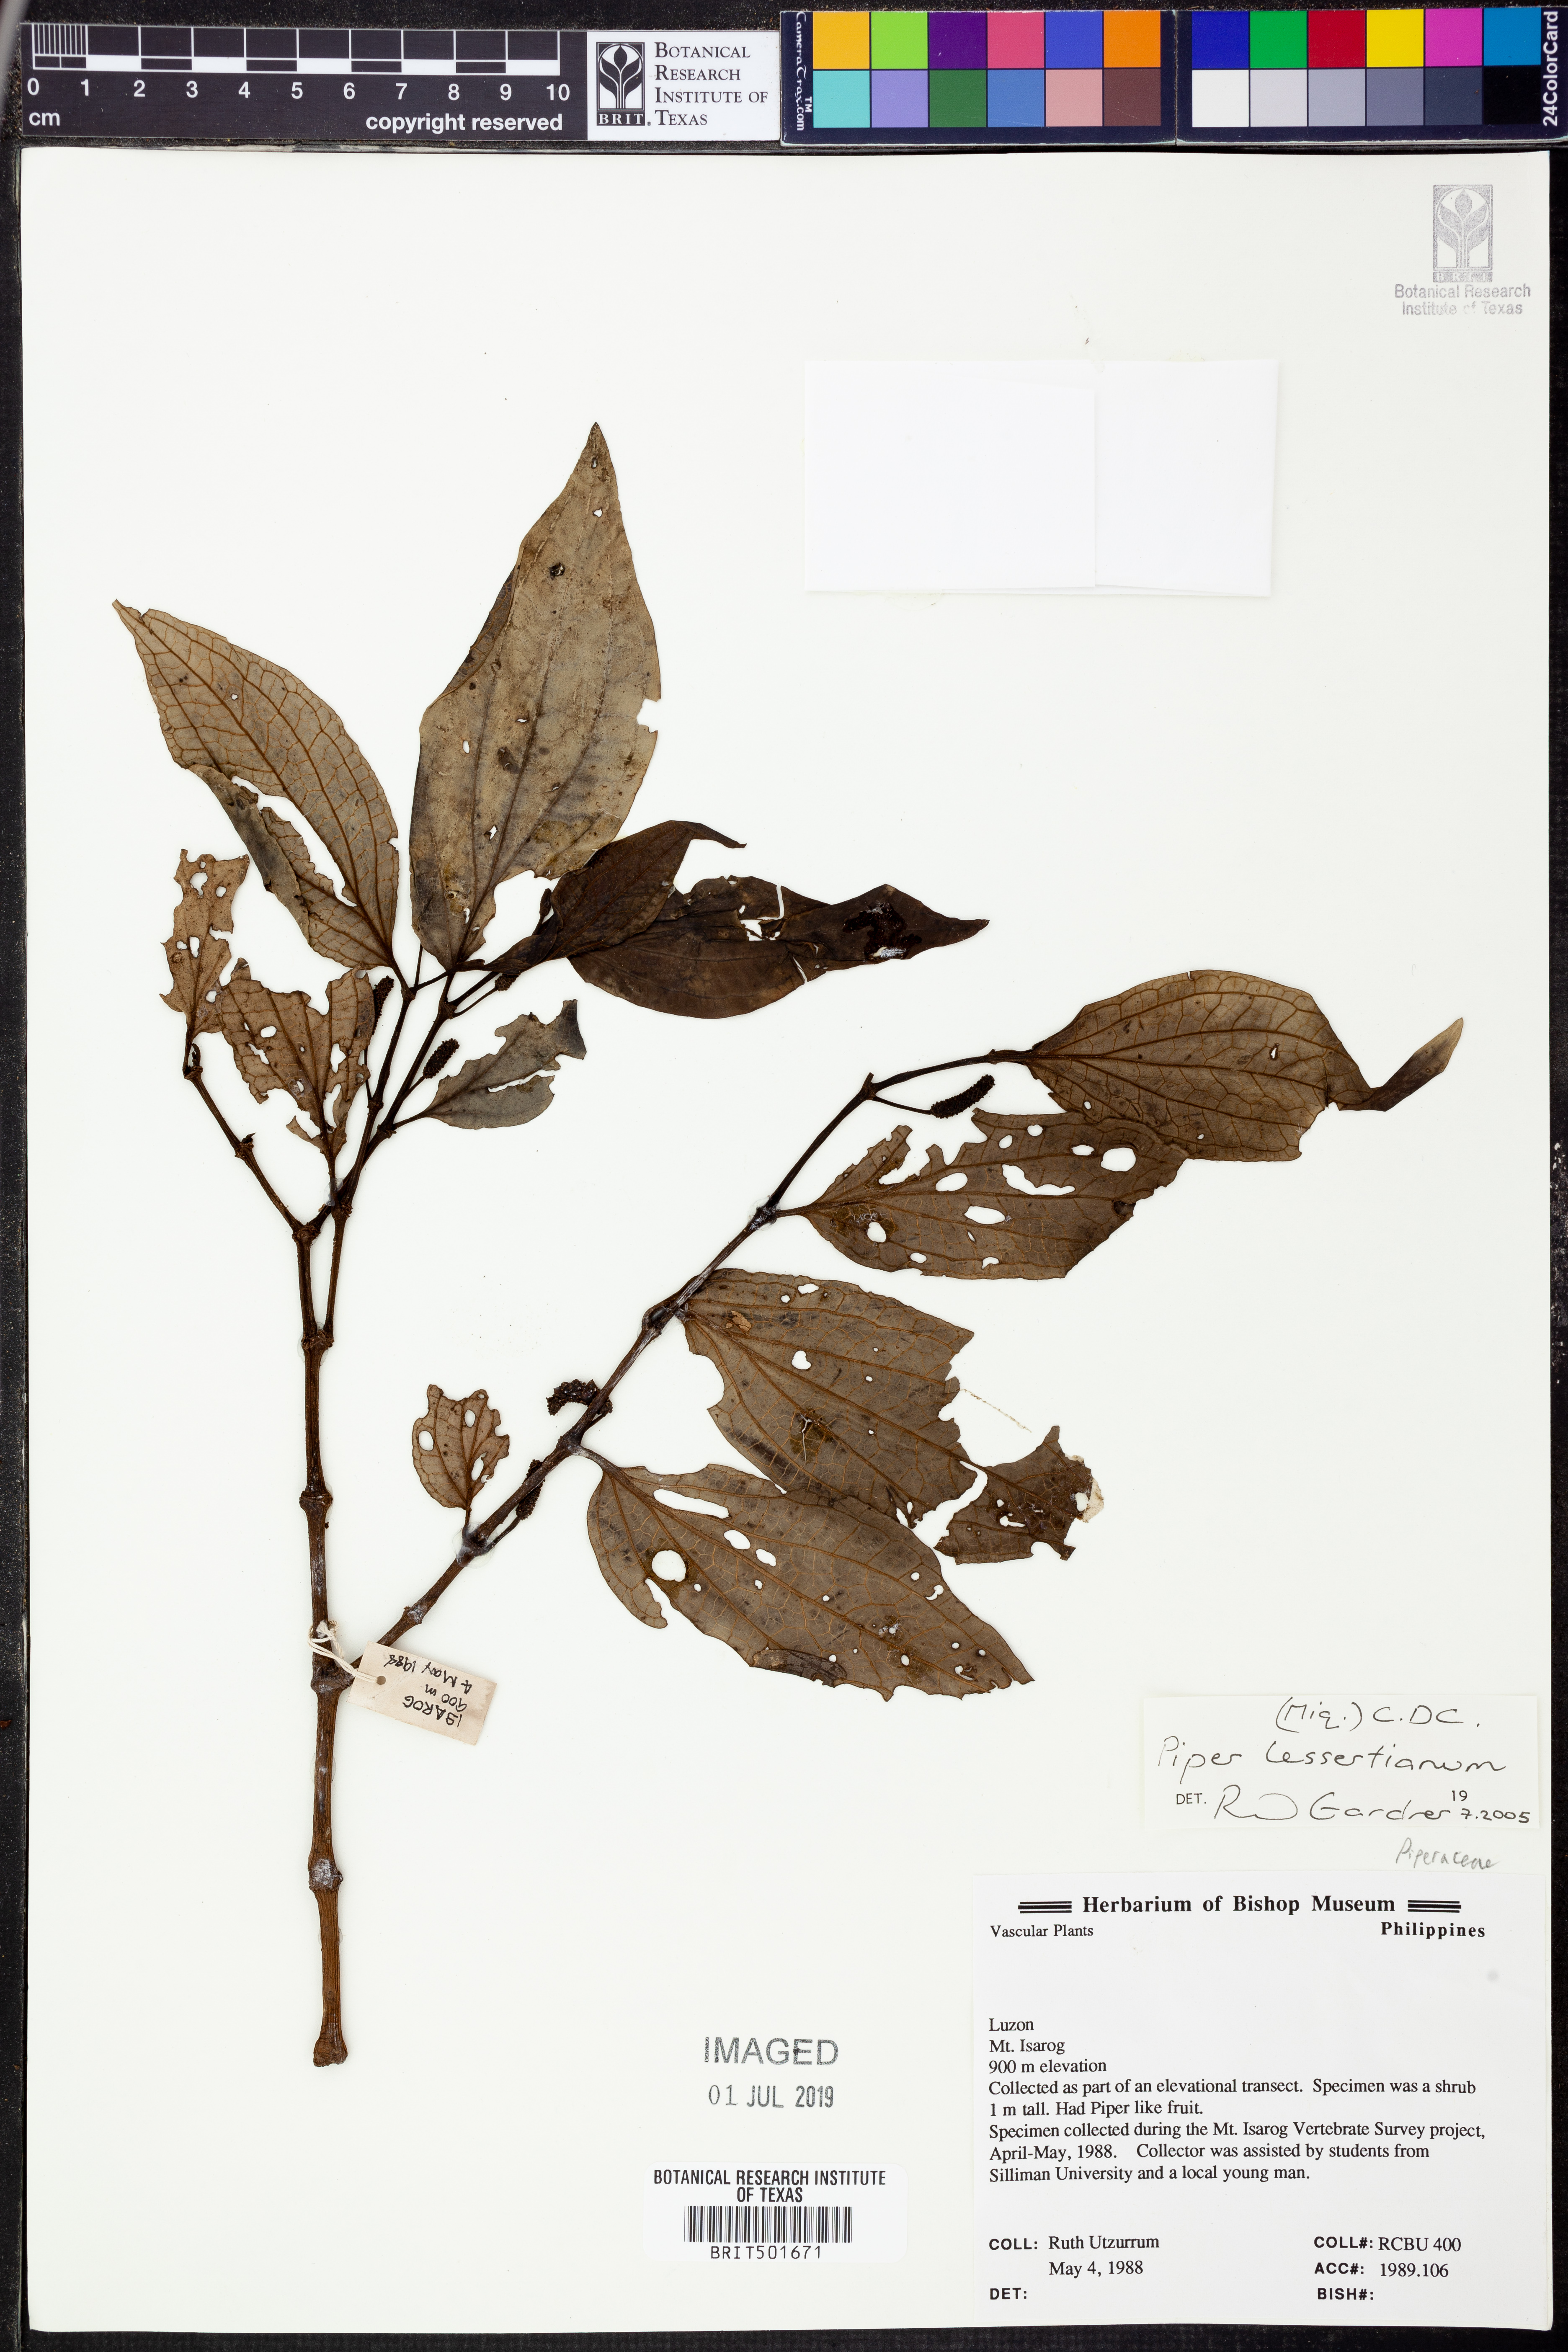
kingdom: Plantae
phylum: Tracheophyta
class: Magnoliopsida
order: Piperales
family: Piperaceae
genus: Piper
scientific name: Piper lessertianum
